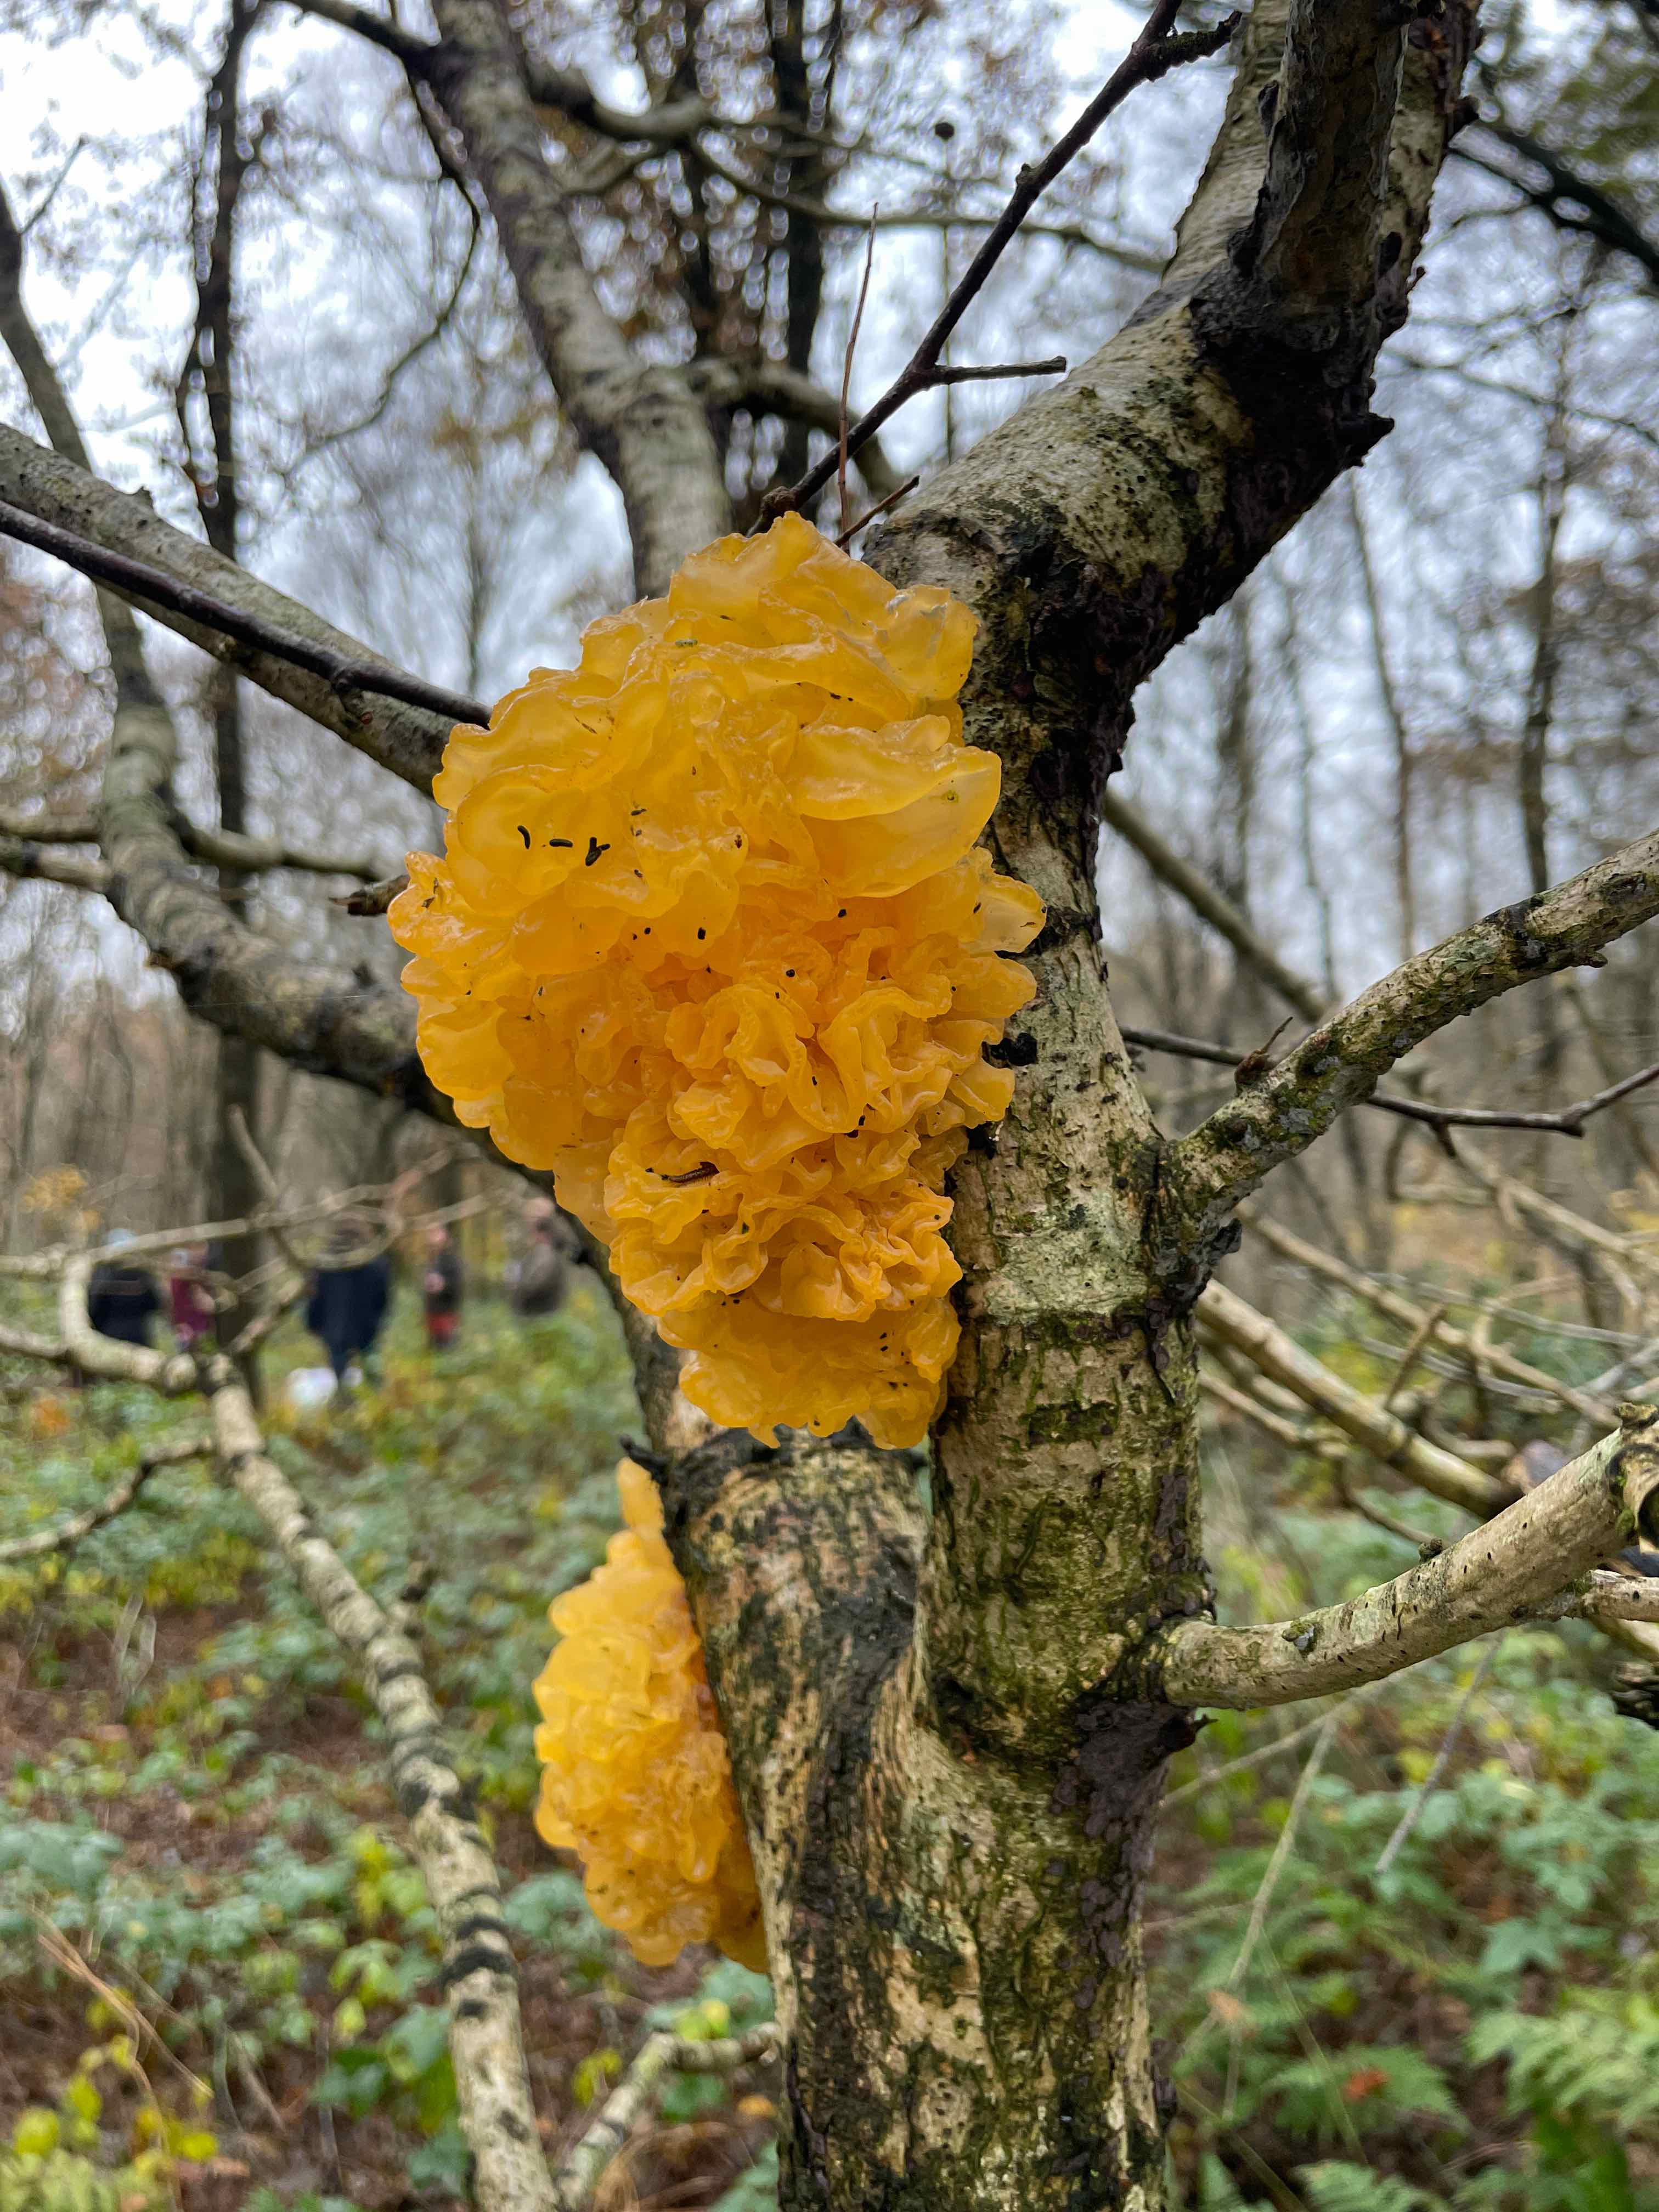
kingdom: Fungi
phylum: Basidiomycota
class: Tremellomycetes
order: Tremellales
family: Tremellaceae
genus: Tremella
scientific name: Tremella mesenterica
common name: gul bævresvamp
